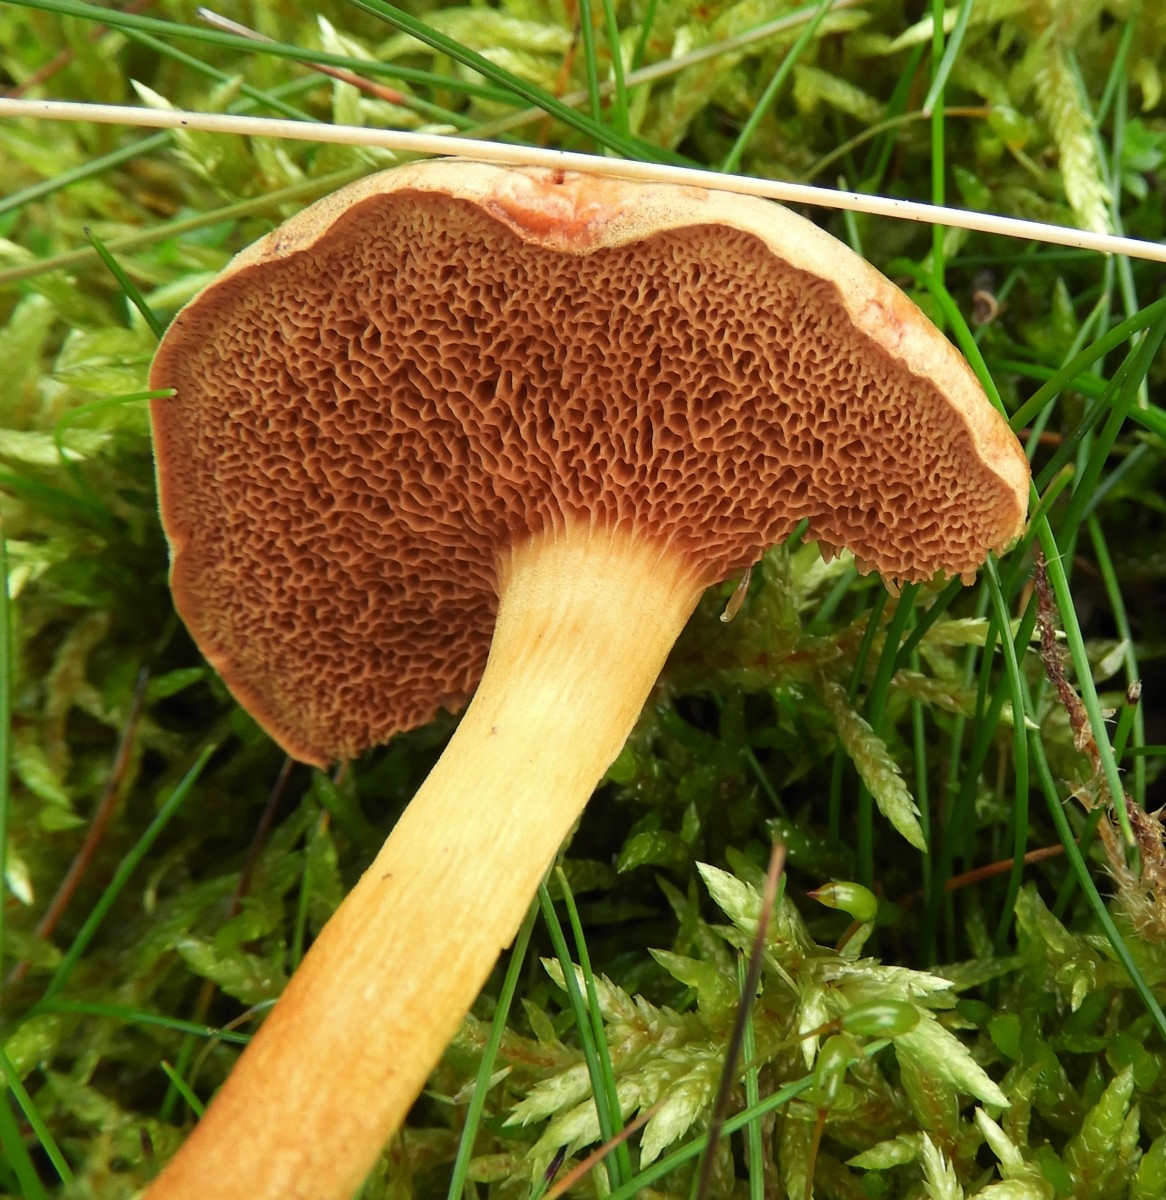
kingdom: Fungi
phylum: Basidiomycota
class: Agaricomycetes
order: Boletales
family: Boletaceae
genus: Chalciporus
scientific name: Chalciporus piperatus
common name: peberrørhat
